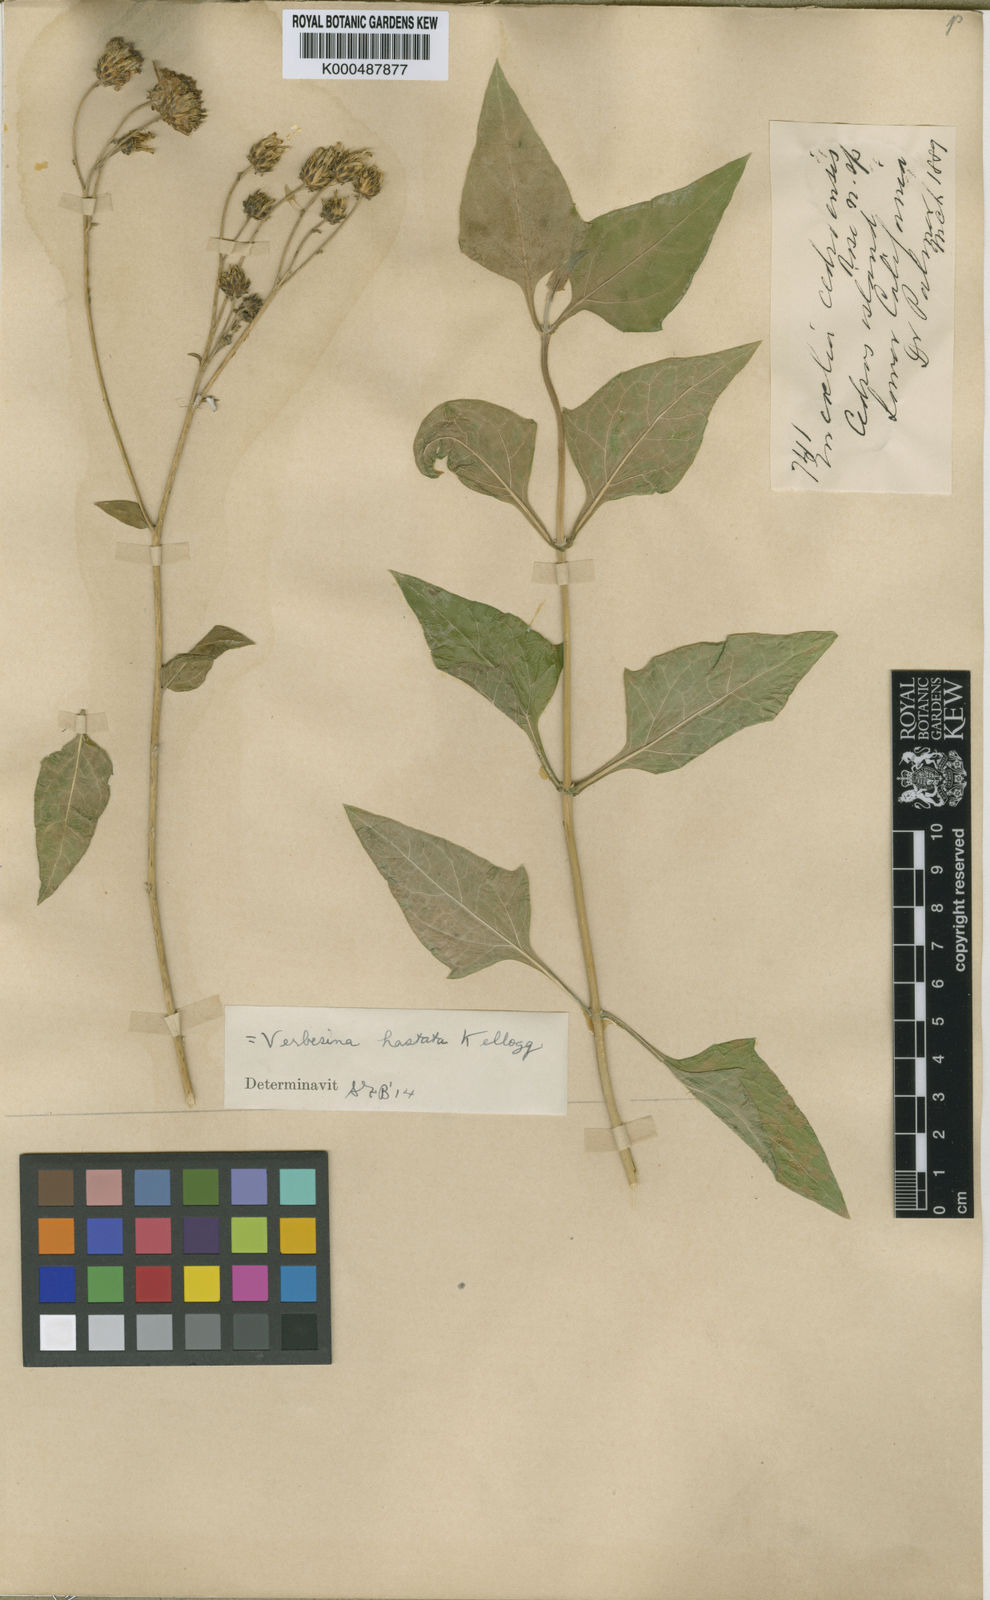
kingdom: Plantae
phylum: Tracheophyta
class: Magnoliopsida
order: Asterales
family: Asteraceae
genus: Verbesina
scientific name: Verbesina resinosa
